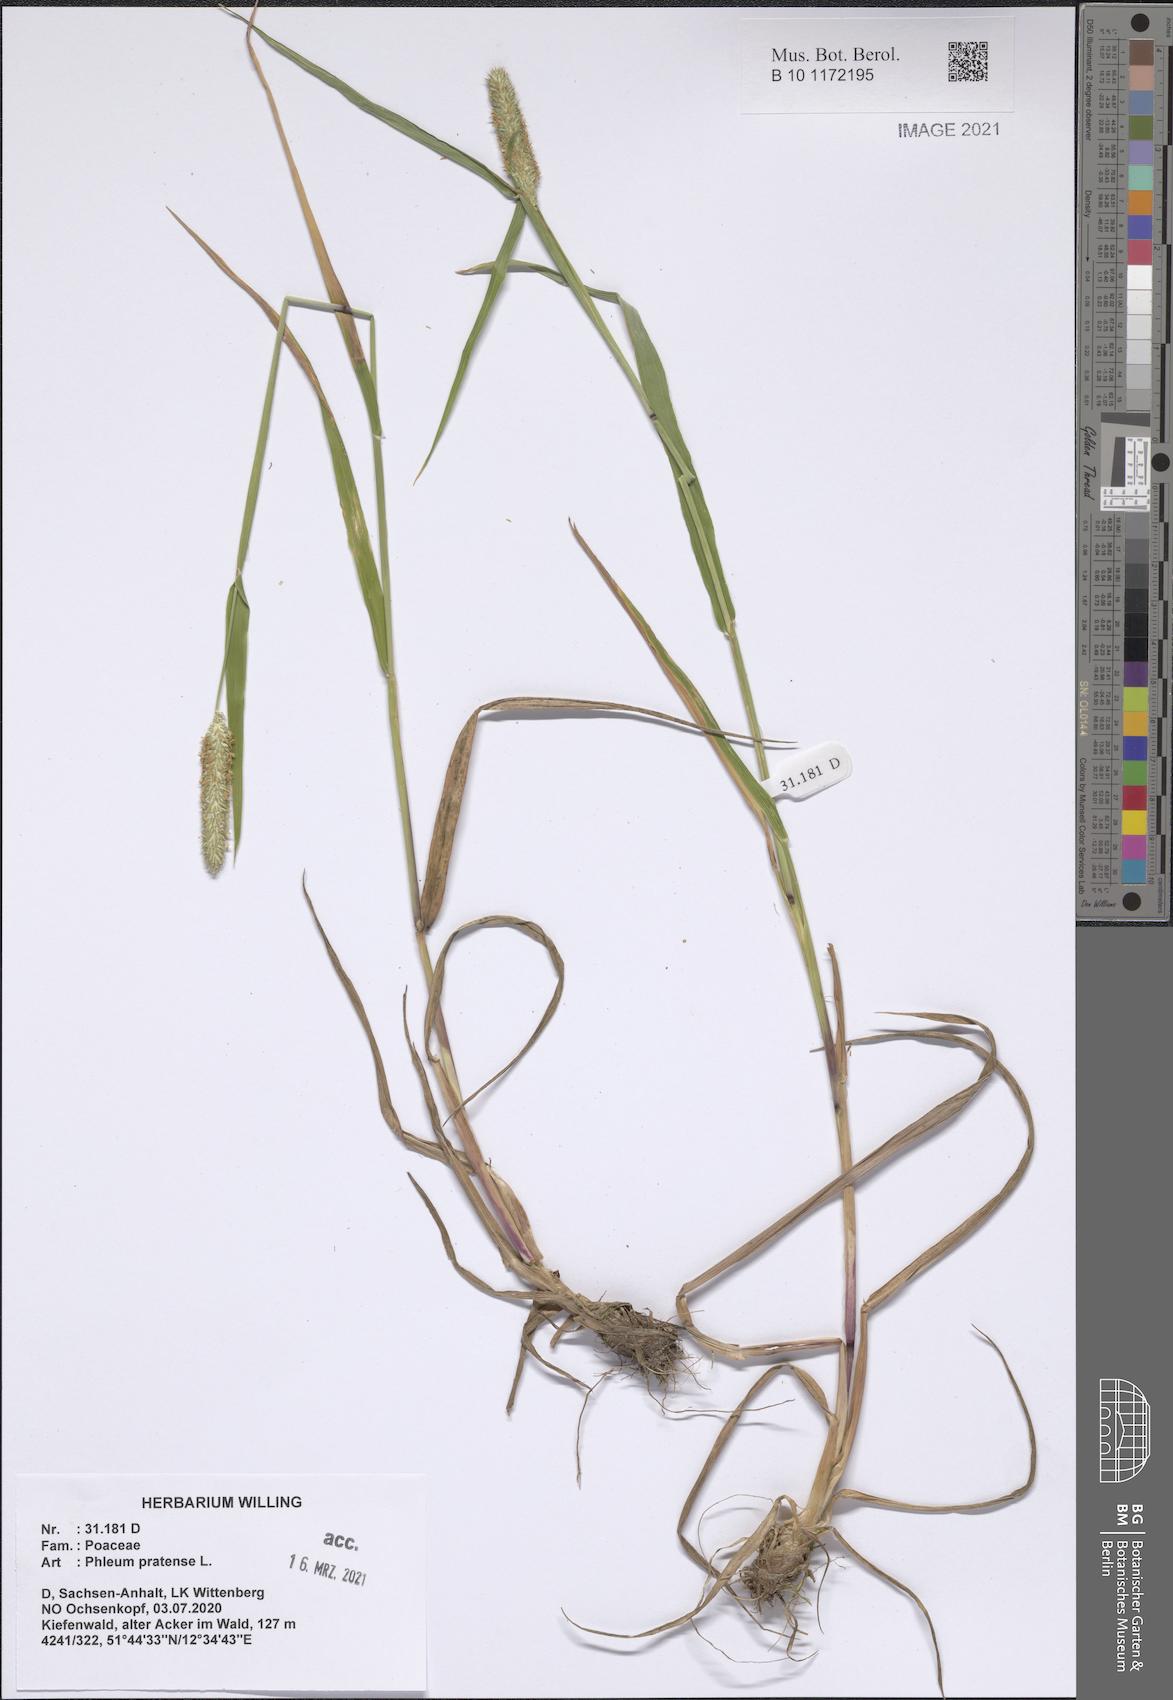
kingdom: Plantae
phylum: Tracheophyta
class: Liliopsida
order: Poales
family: Poaceae
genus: Phleum
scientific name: Phleum pratense
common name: Timothy grass
